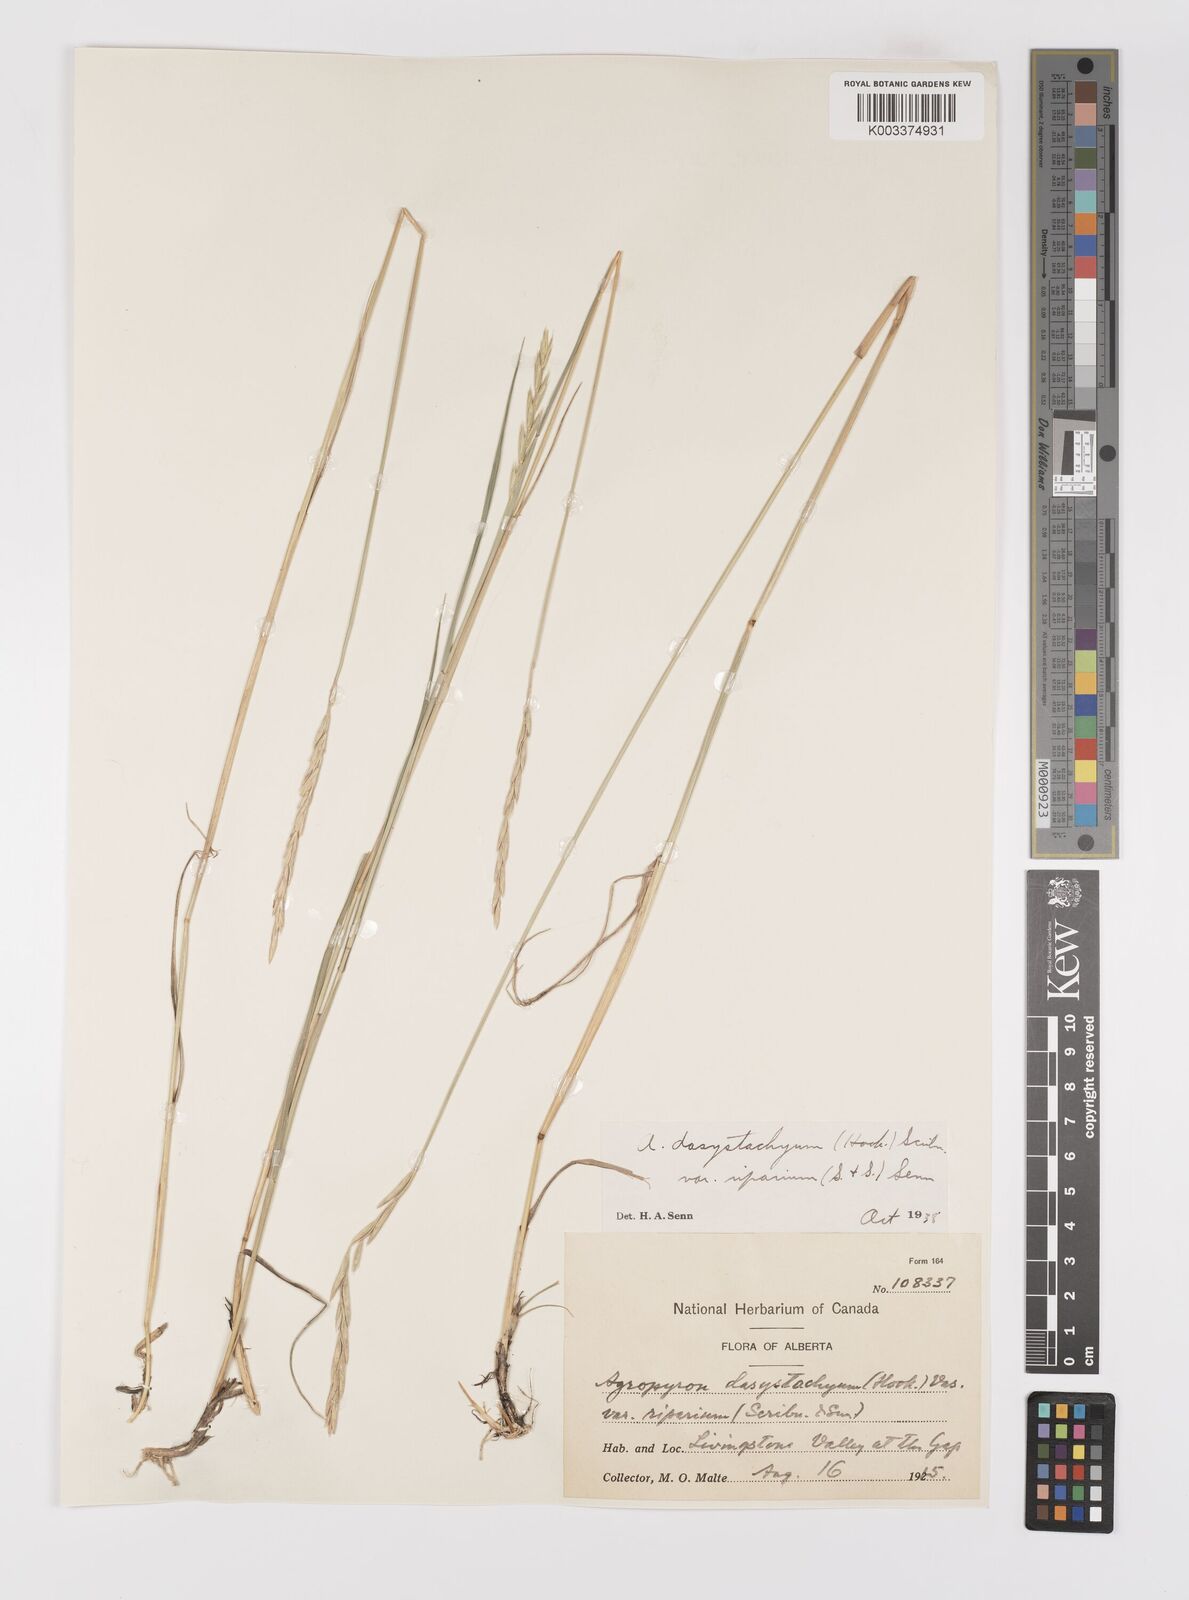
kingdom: Plantae
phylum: Tracheophyta
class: Liliopsida
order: Poales
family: Poaceae
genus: Elymus
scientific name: Elymus lanceolatus
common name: Thick-spike wheatgrass
